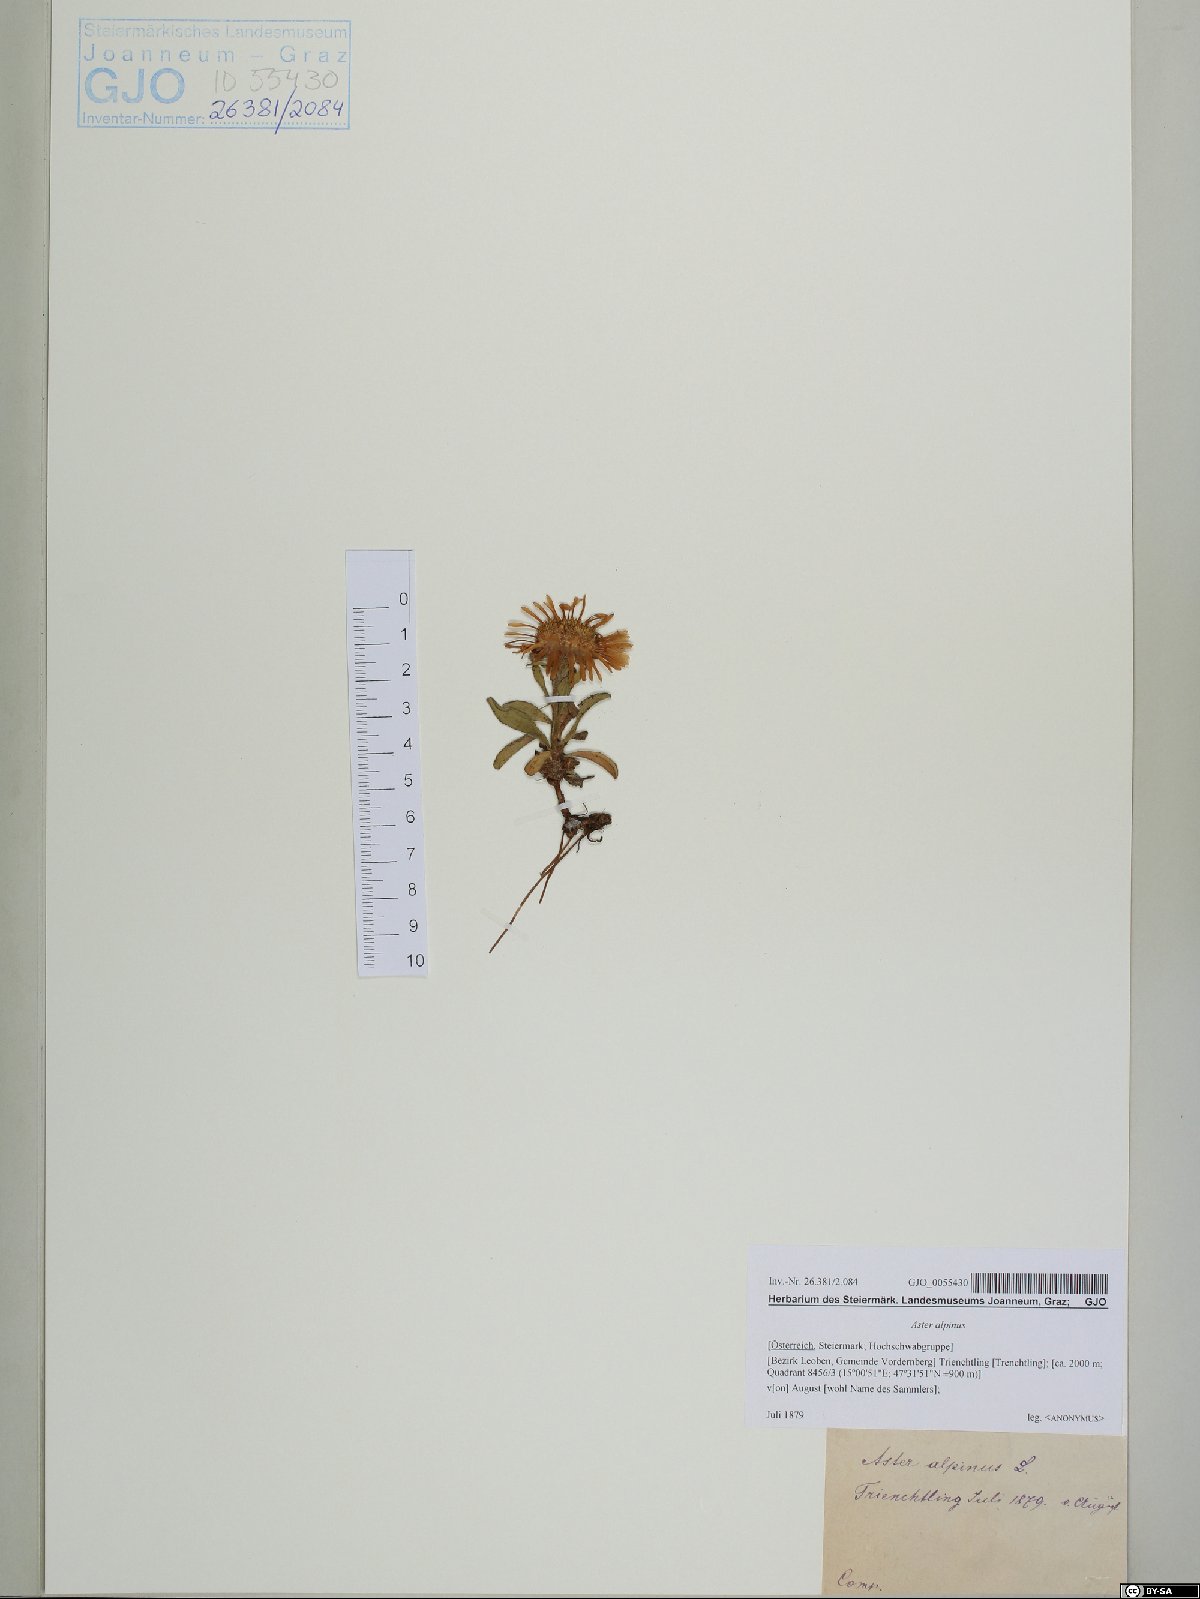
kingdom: Plantae
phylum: Tracheophyta
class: Magnoliopsida
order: Asterales
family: Asteraceae
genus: Aster
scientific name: Aster alpinus
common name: Alpine aster
